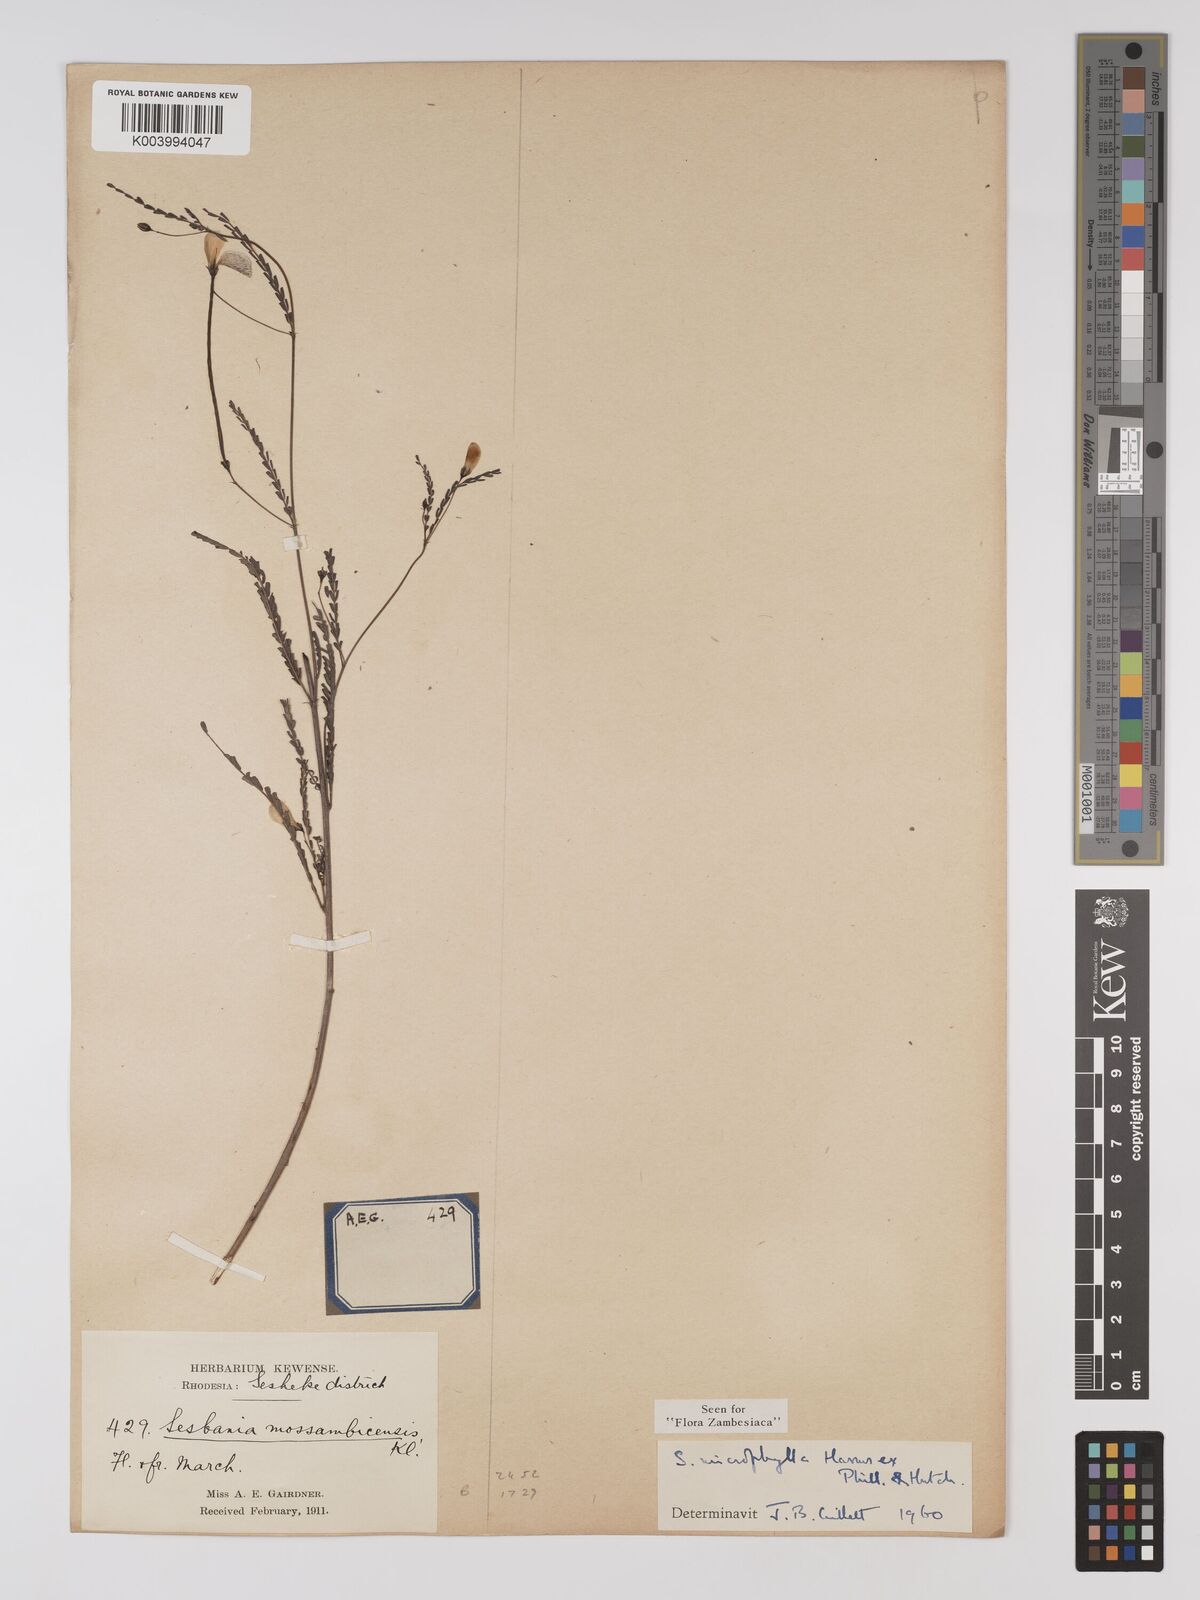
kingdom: Plantae
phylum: Tracheophyta
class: Magnoliopsida
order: Fabales
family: Fabaceae
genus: Sesbania
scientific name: Sesbania microphylla
